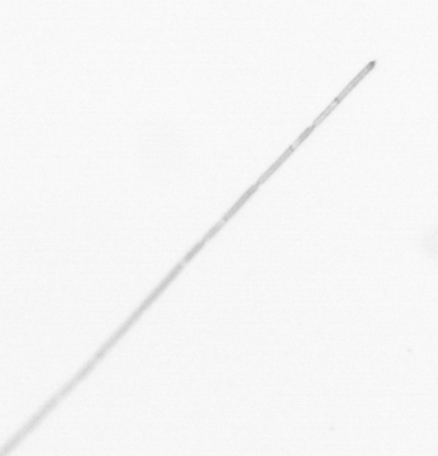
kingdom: Chromista
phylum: Ochrophyta
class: Bacillariophyceae
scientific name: Bacillariophyceae
